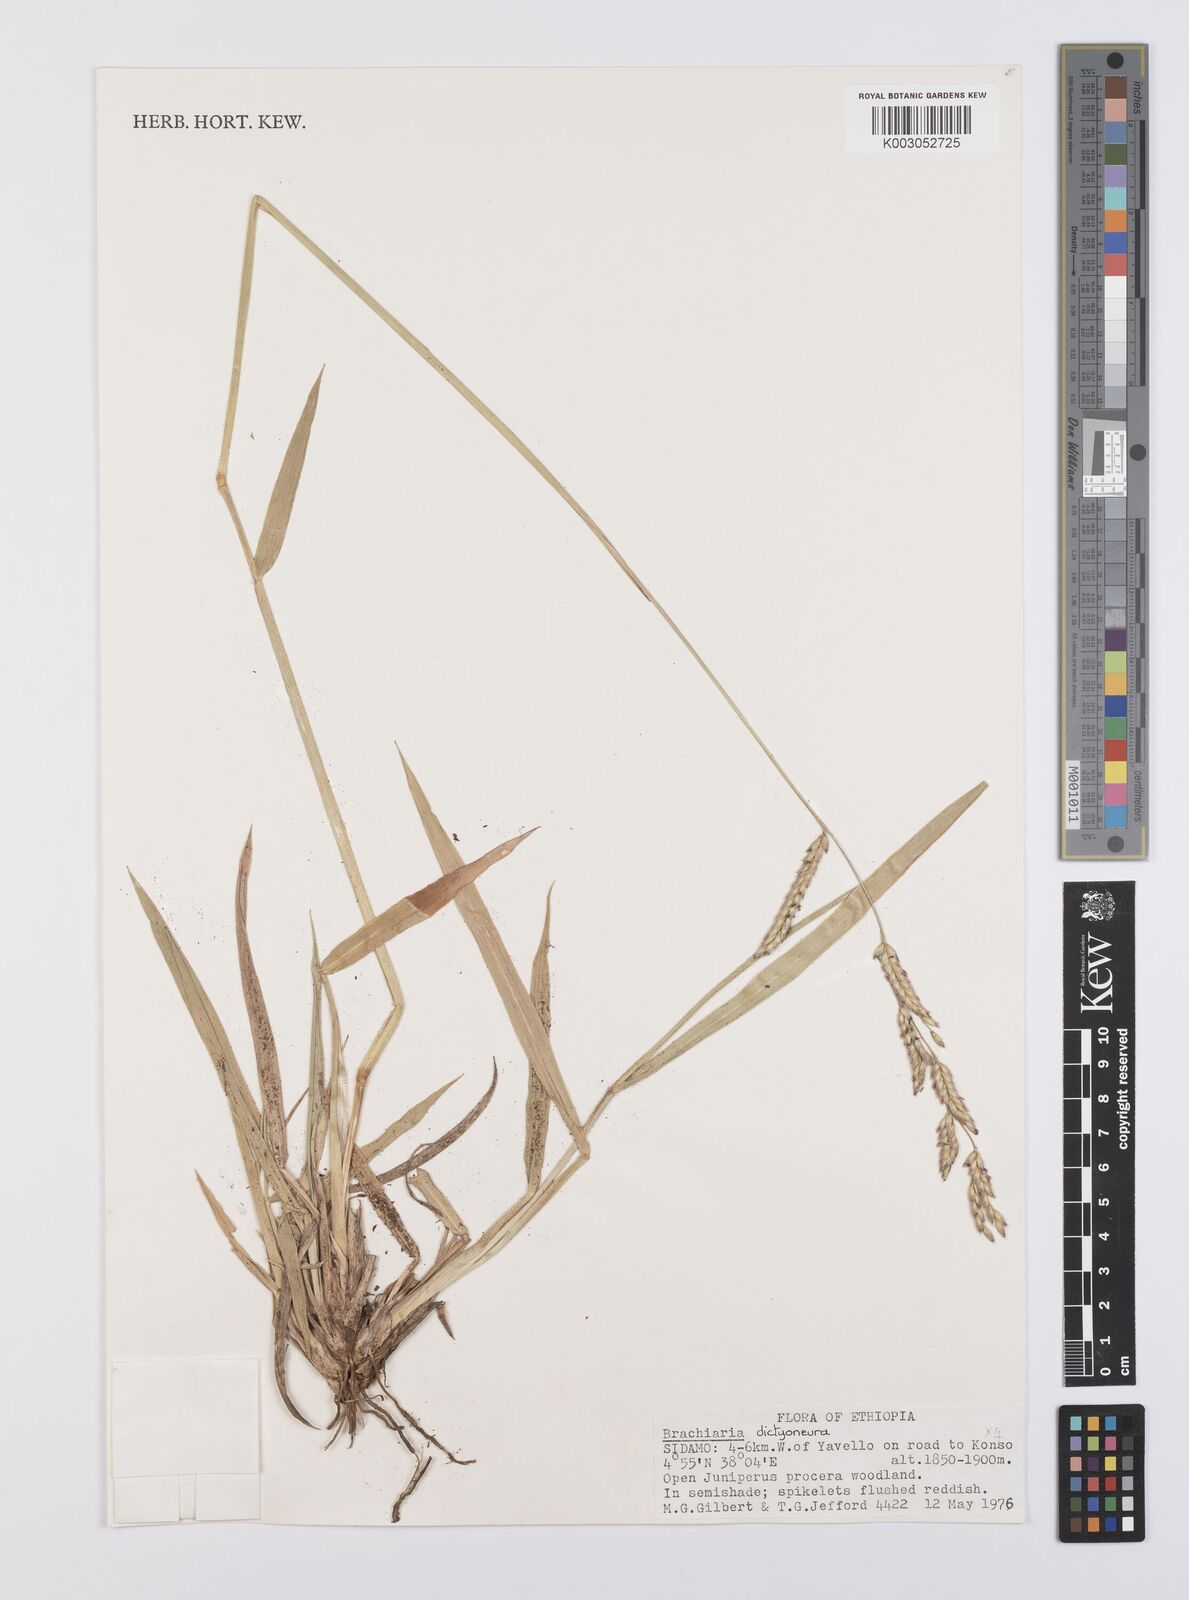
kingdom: Plantae
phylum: Tracheophyta
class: Liliopsida
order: Poales
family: Poaceae
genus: Urochloa
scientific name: Urochloa dictyoneura
